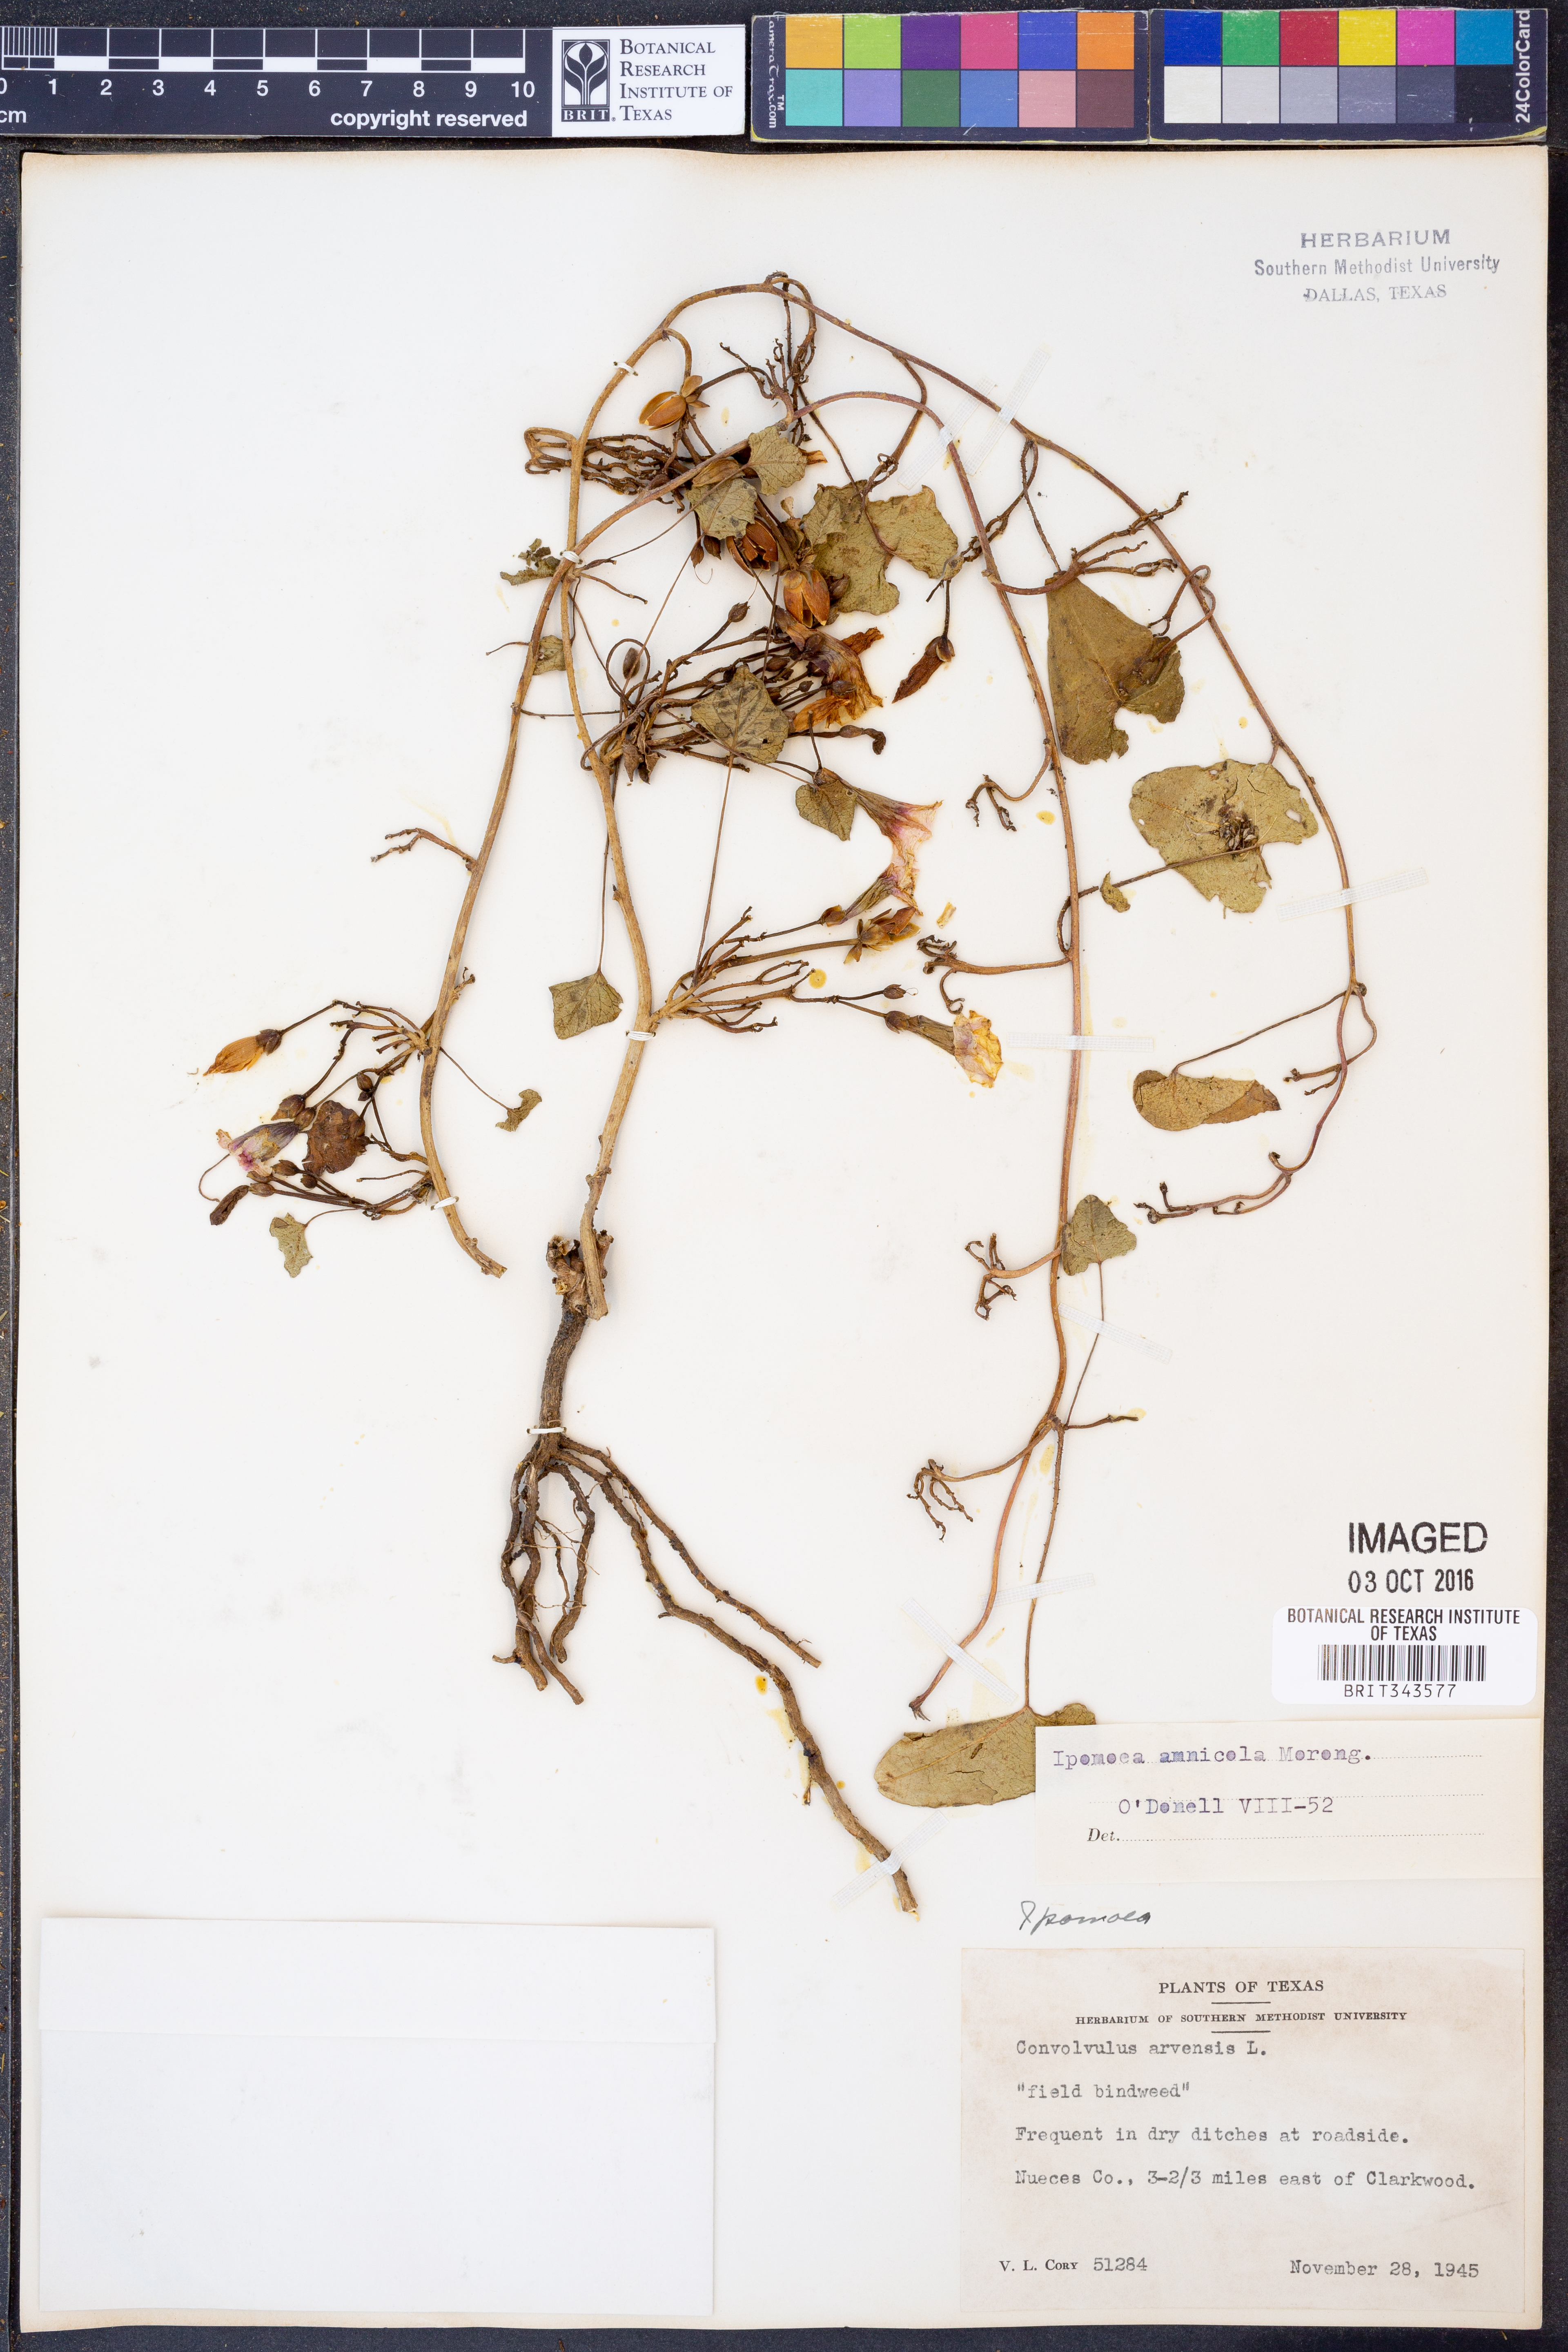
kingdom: Plantae
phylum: Tracheophyta
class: Magnoliopsida
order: Solanales
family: Convolvulaceae
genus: Ipomoea
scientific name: Ipomoea amnicola
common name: Redcenter morning-glory
